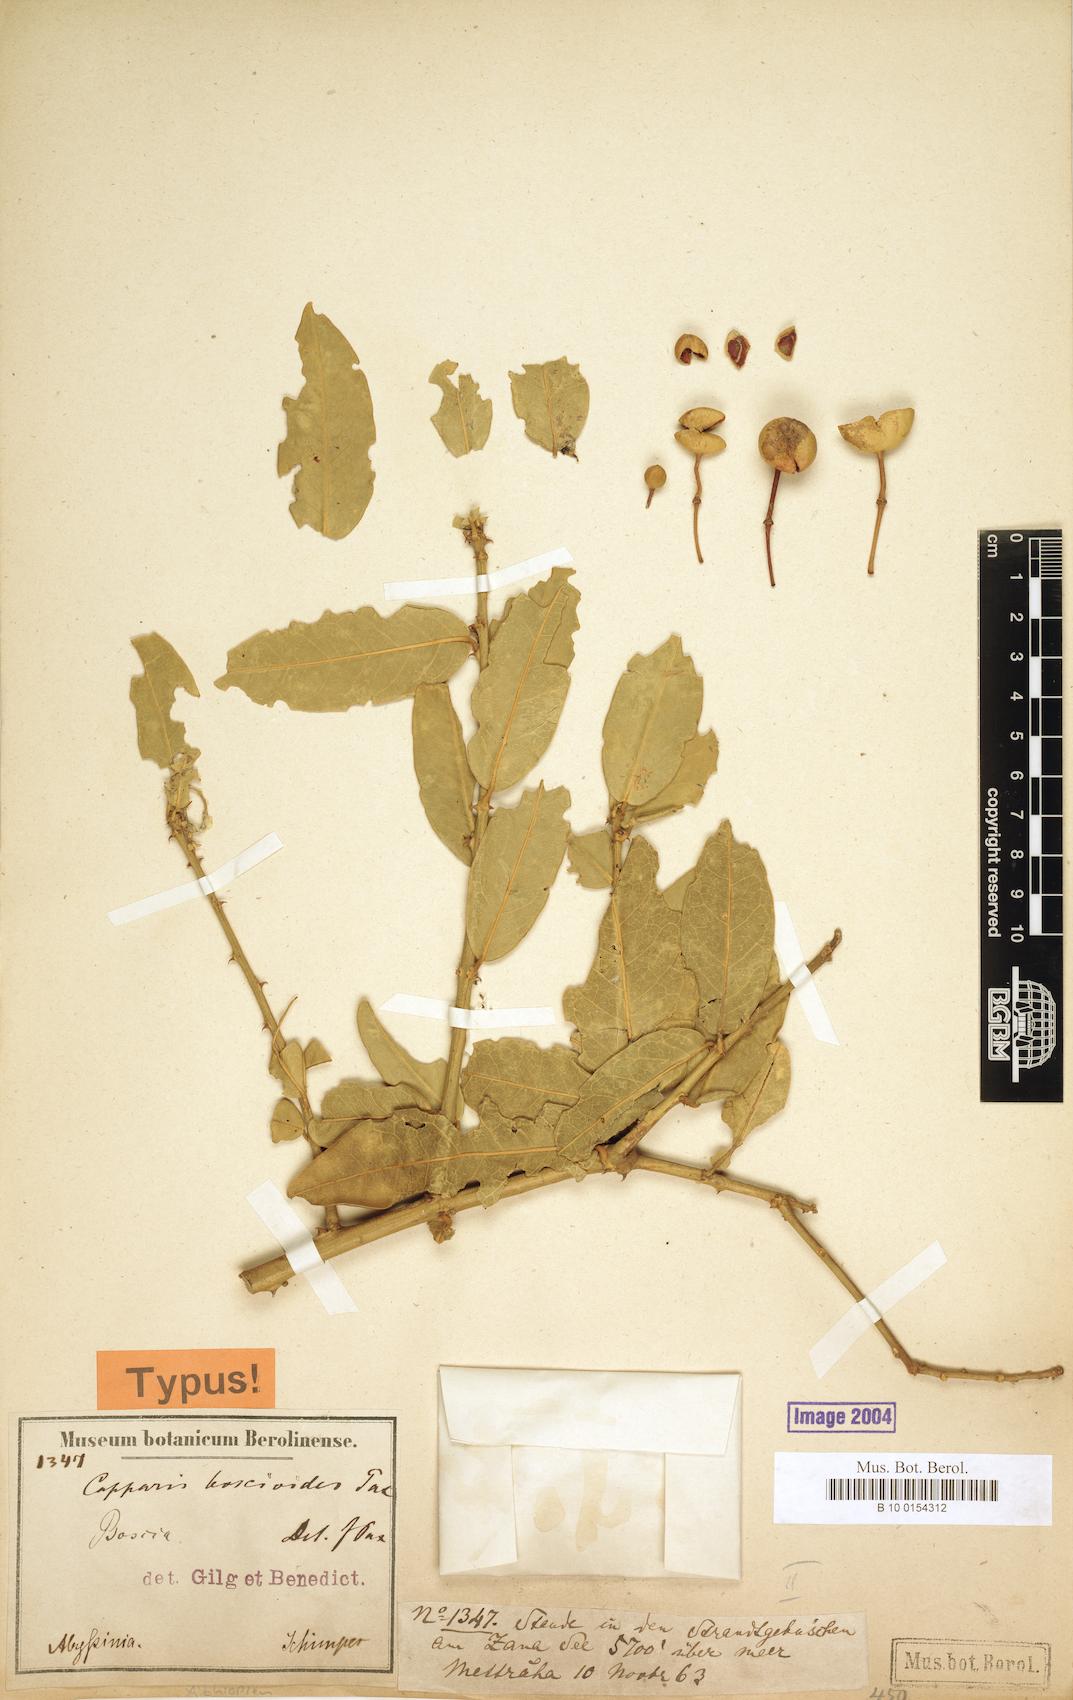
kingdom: Plantae
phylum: Tracheophyta
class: Magnoliopsida
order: Brassicales
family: Capparaceae
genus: Capparis
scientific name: Capparis sepiaria
